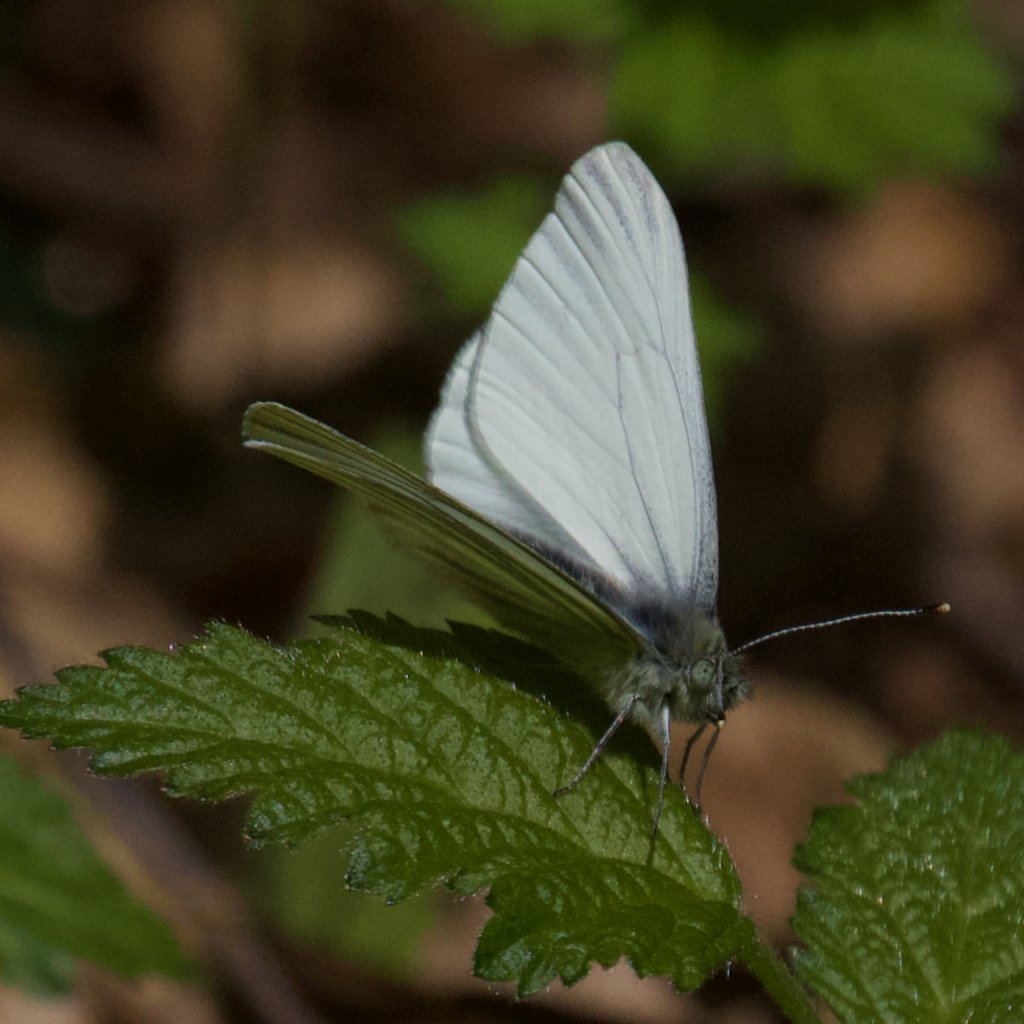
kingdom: Animalia
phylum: Arthropoda
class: Insecta
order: Lepidoptera
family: Pieridae
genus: Pieris
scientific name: Pieris marginalis
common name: Margined White
